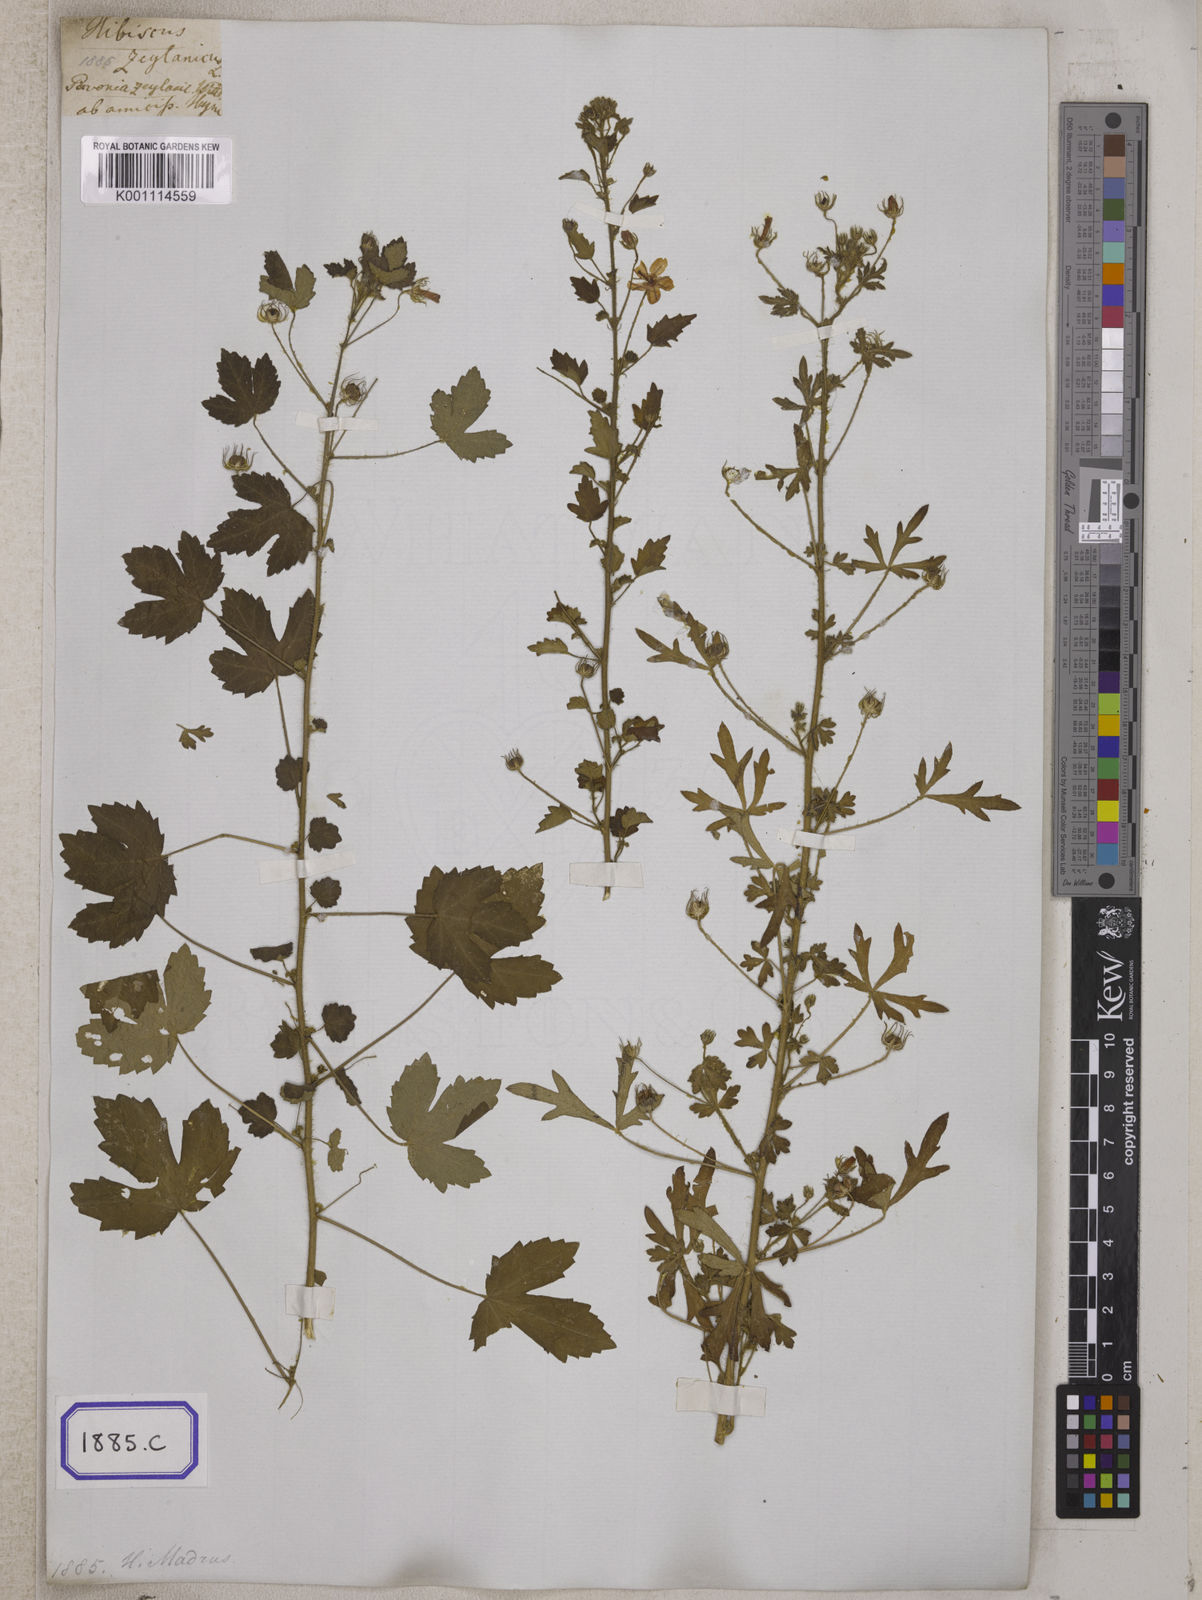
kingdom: Plantae
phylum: Tracheophyta
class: Magnoliopsida
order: Malvales
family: Malvaceae
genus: Pavonia
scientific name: Pavonia
